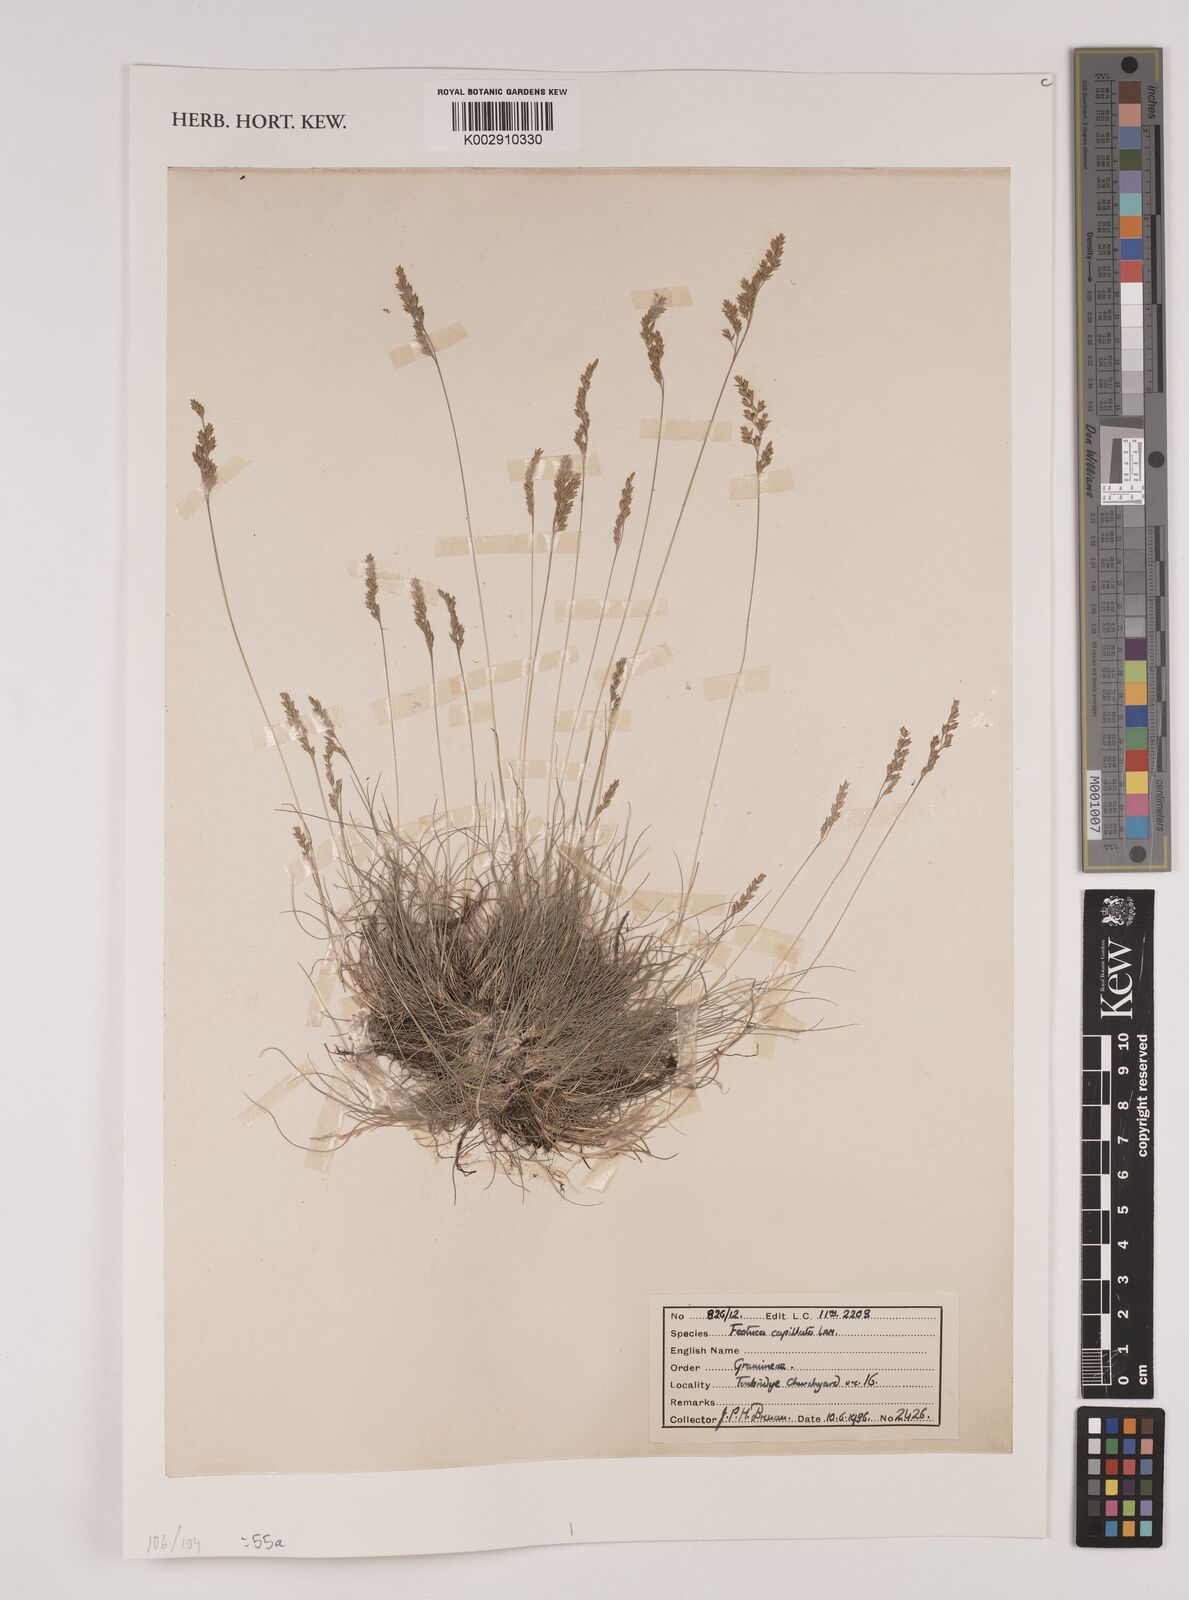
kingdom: Plantae
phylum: Tracheophyta
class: Liliopsida
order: Poales
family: Poaceae
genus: Festuca
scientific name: Festuca amethystina
